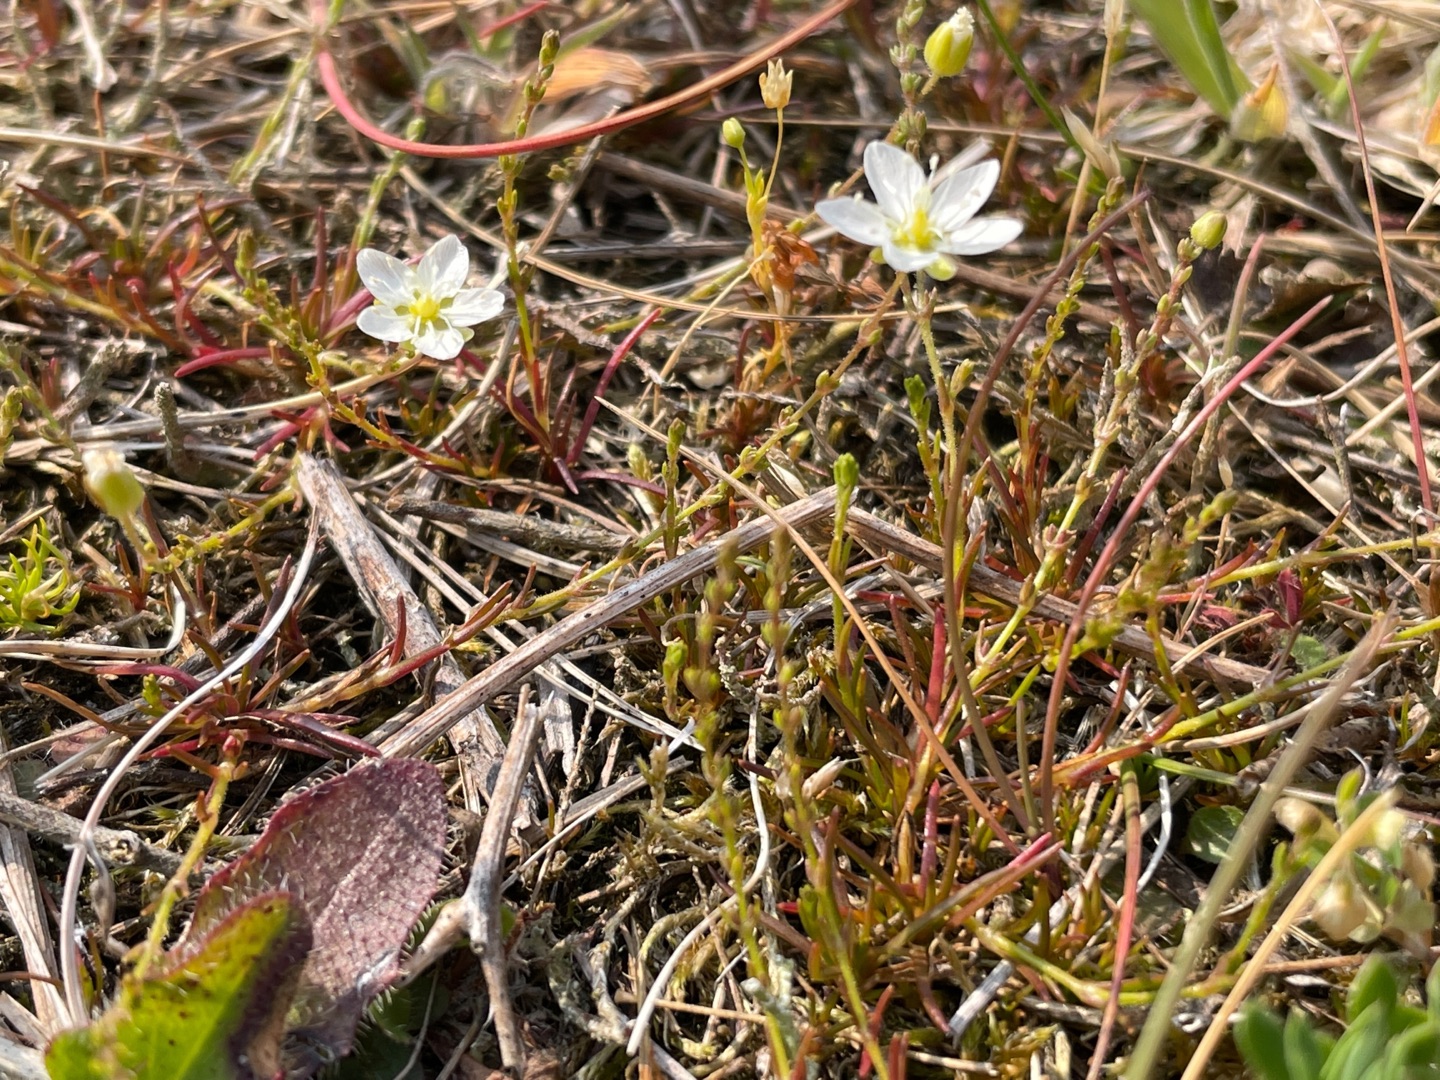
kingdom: Plantae
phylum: Tracheophyta
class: Magnoliopsida
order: Caryophyllales
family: Caryophyllaceae
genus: Sagina
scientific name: Sagina nodosa
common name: Knude-firling
